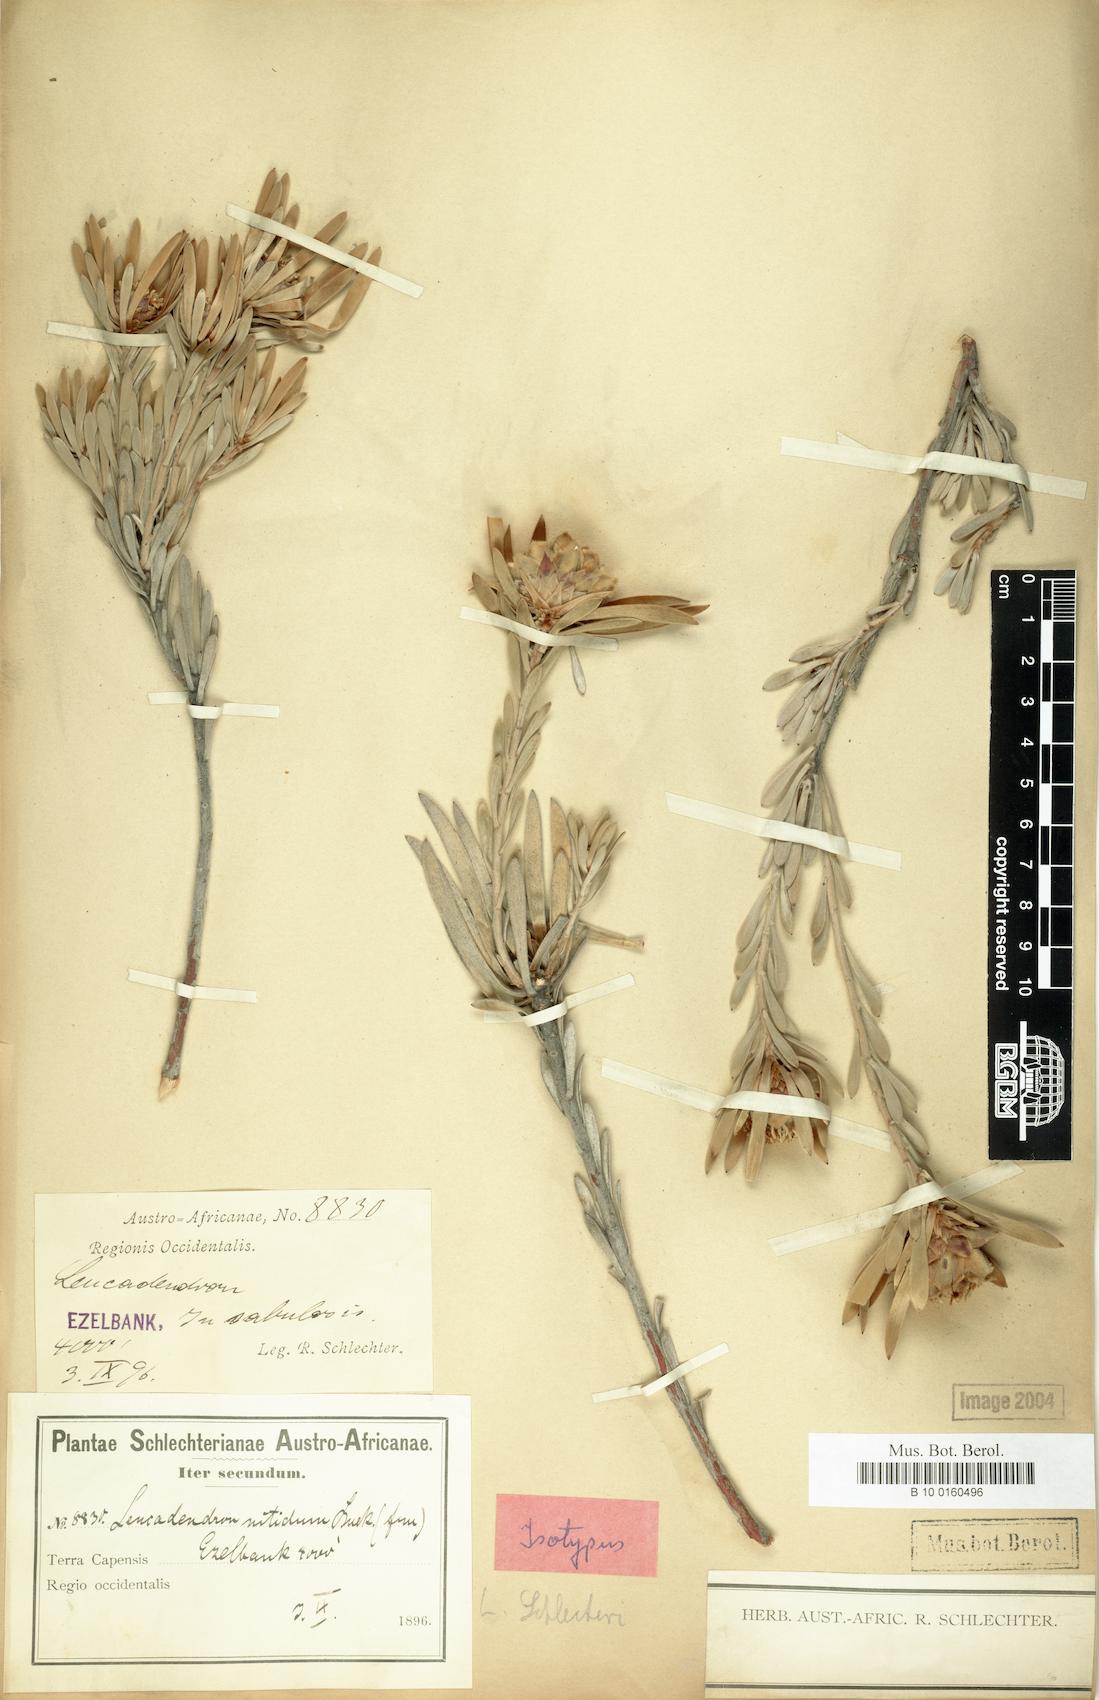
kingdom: Plantae
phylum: Tracheophyta
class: Magnoliopsida
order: Proteales
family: Proteaceae
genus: Leucadendron
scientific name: Leucadendron nitidum
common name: Bokkeveld conebush
